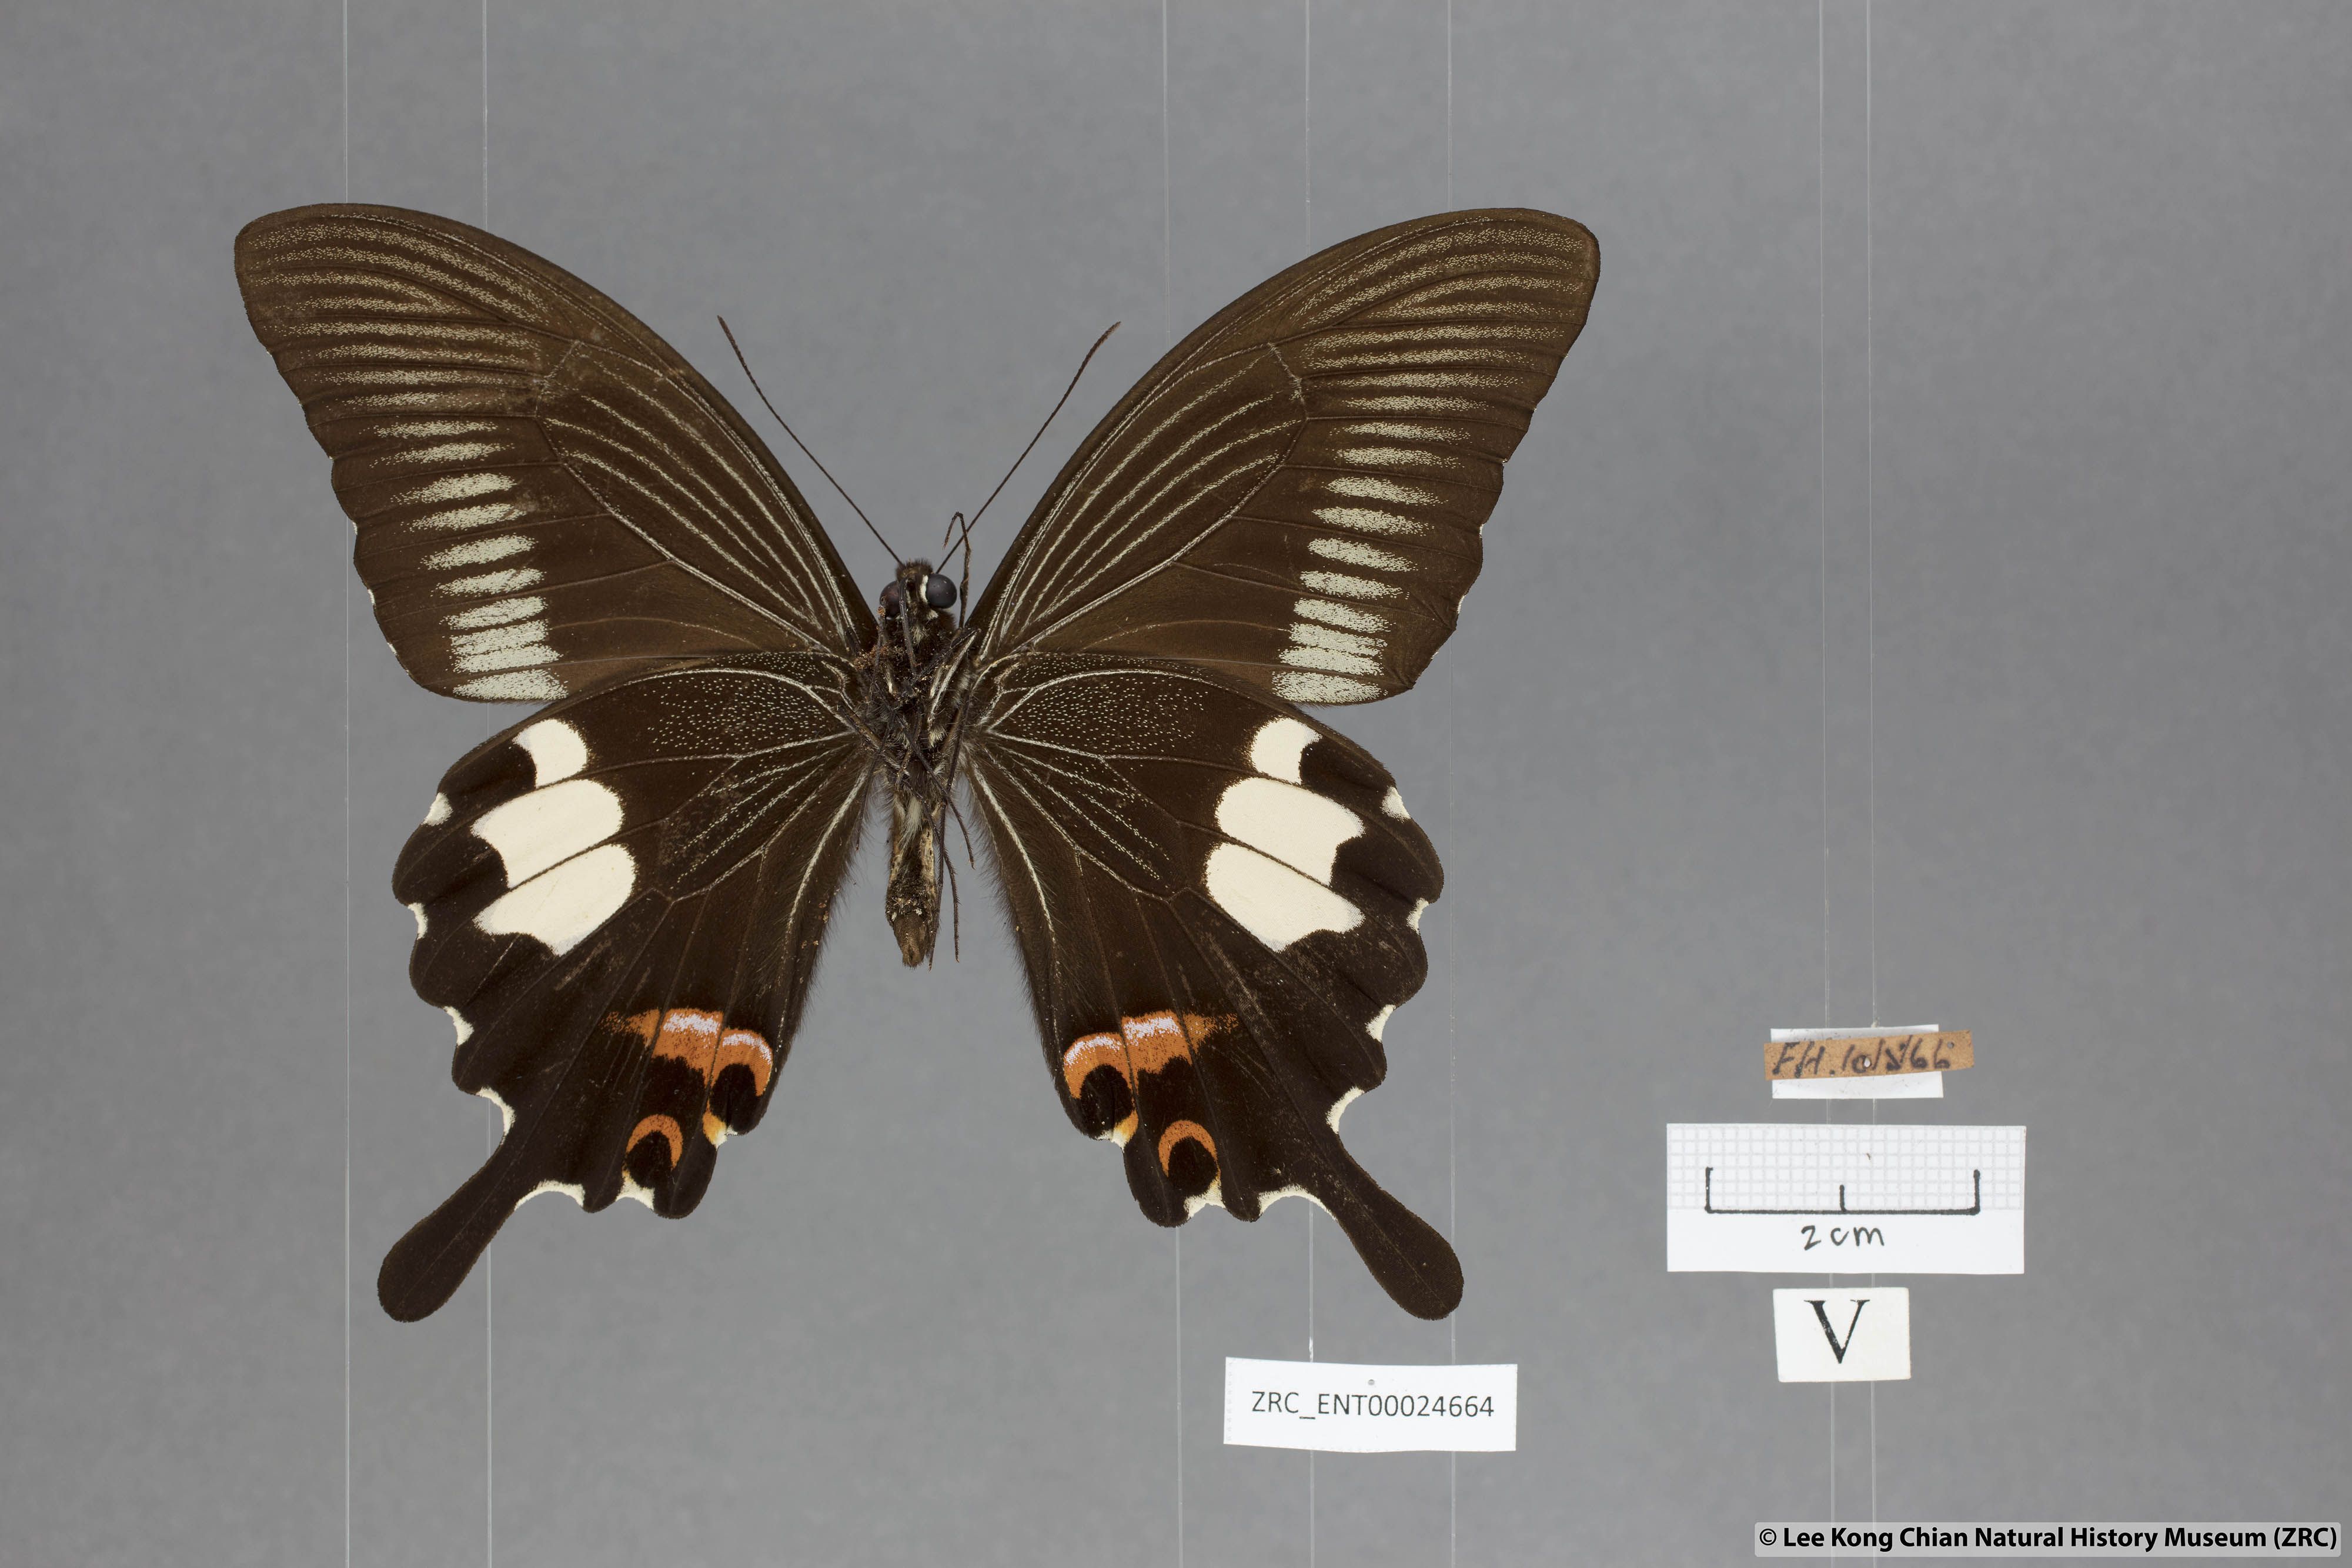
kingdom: Animalia
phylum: Arthropoda
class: Insecta
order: Lepidoptera
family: Papilionidae
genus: Papilio
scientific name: Papilio iswaroides
